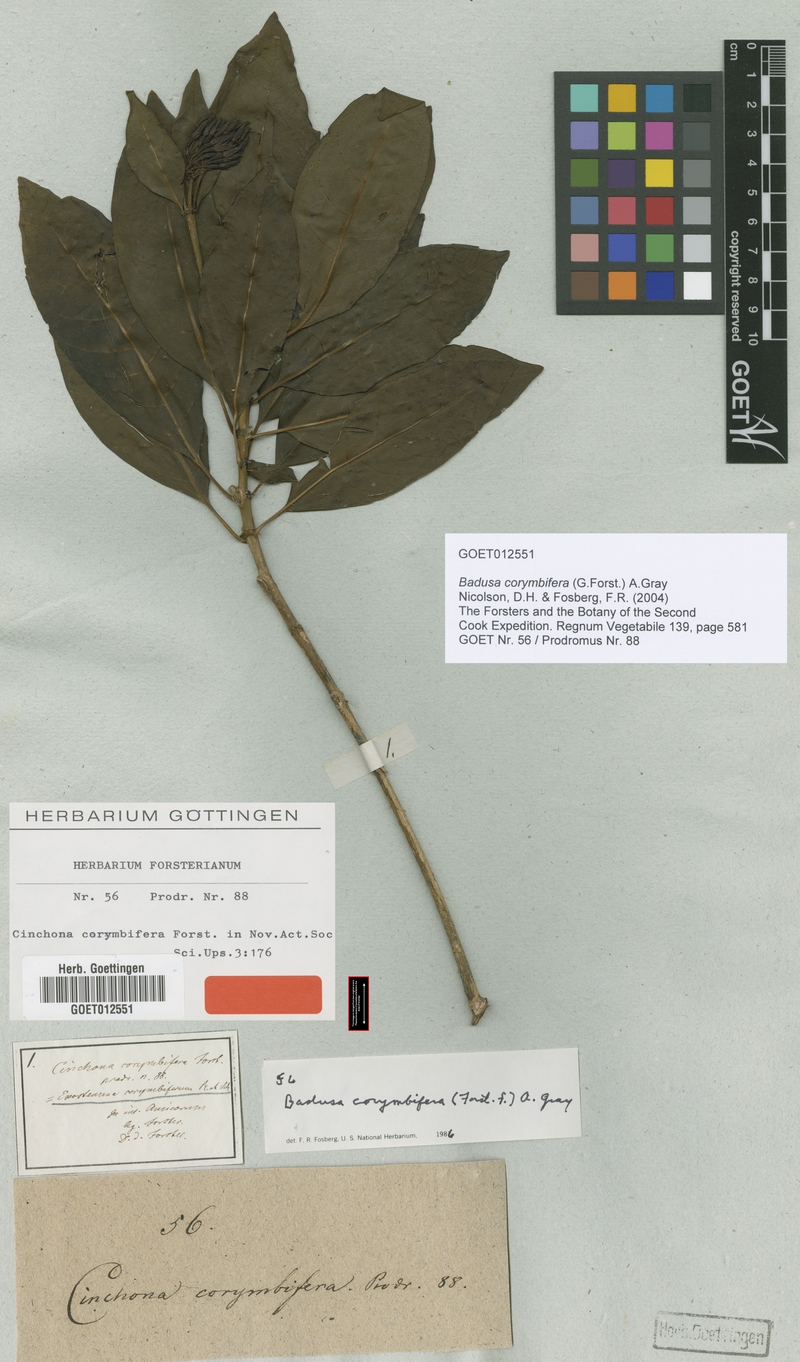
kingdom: Plantae
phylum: Tracheophyta
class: Magnoliopsida
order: Gentianales
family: Rubiaceae
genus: Badusa
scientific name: Badusa corymbifera
